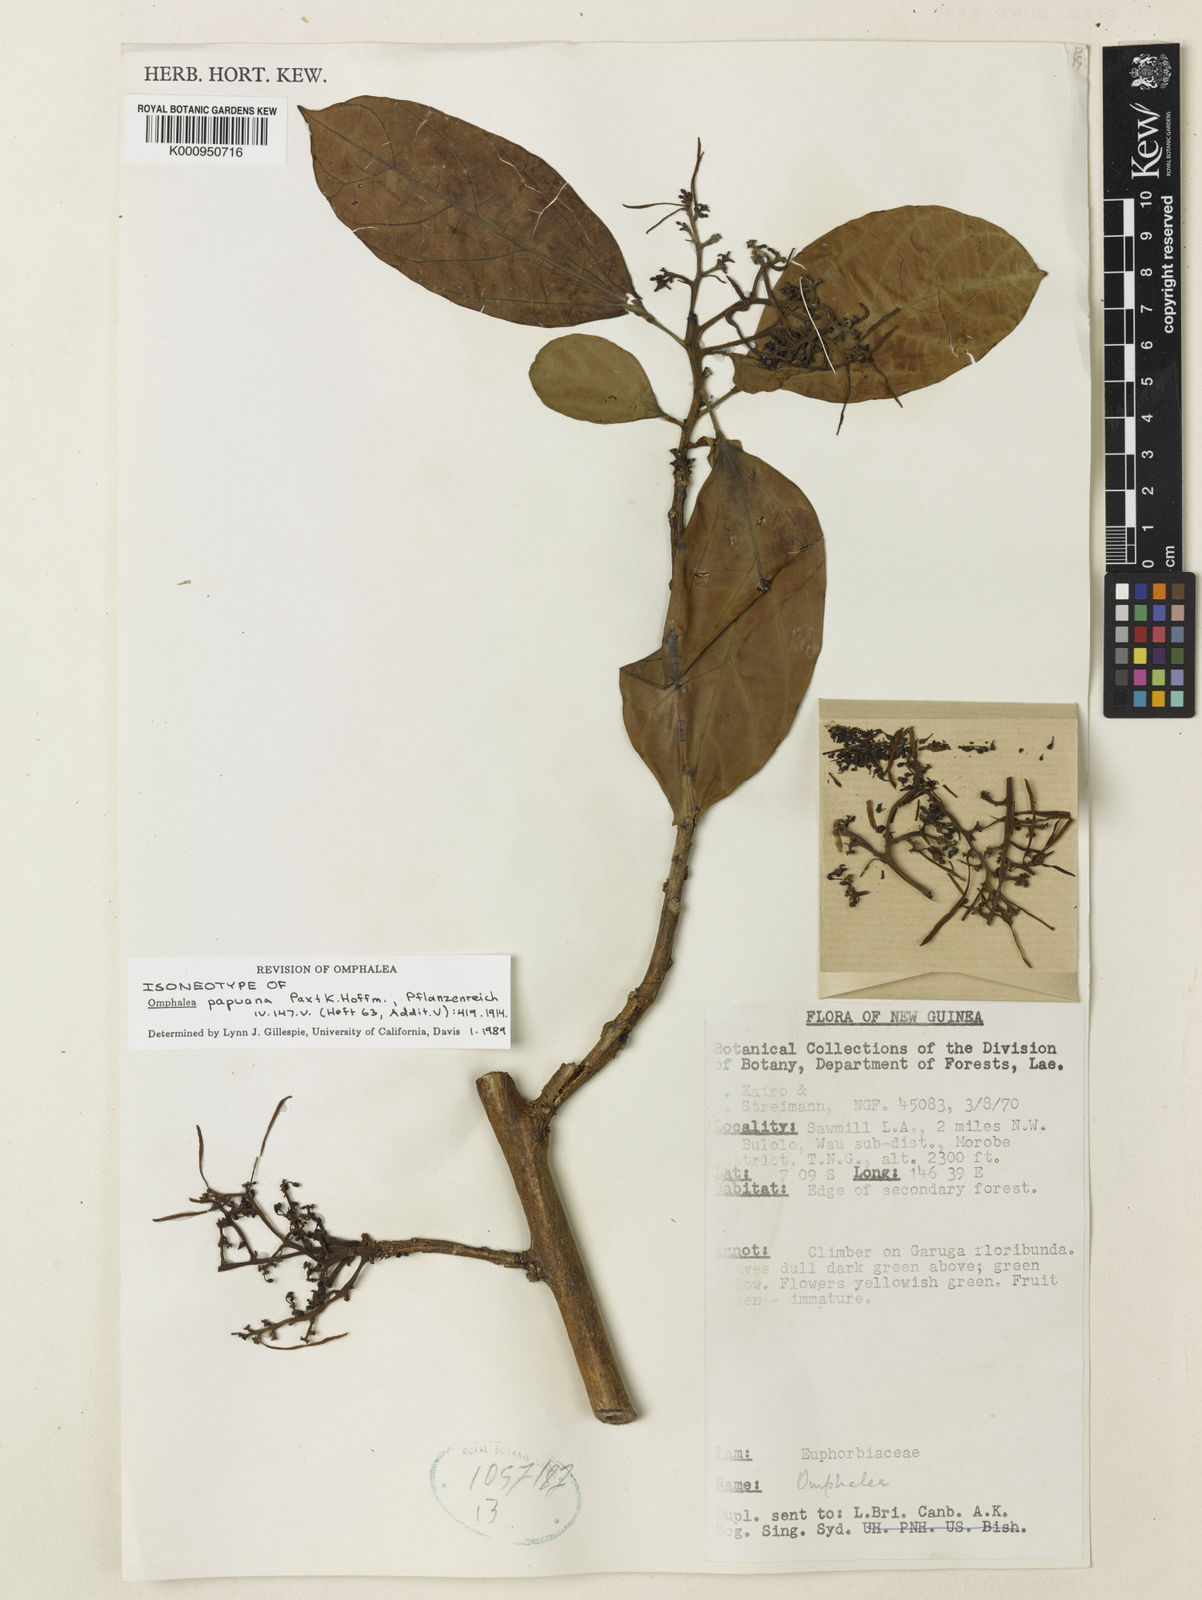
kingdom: Plantae
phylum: Tracheophyta
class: Magnoliopsida
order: Malpighiales
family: Euphorbiaceae
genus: Omphalea
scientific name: Omphalea papuana
